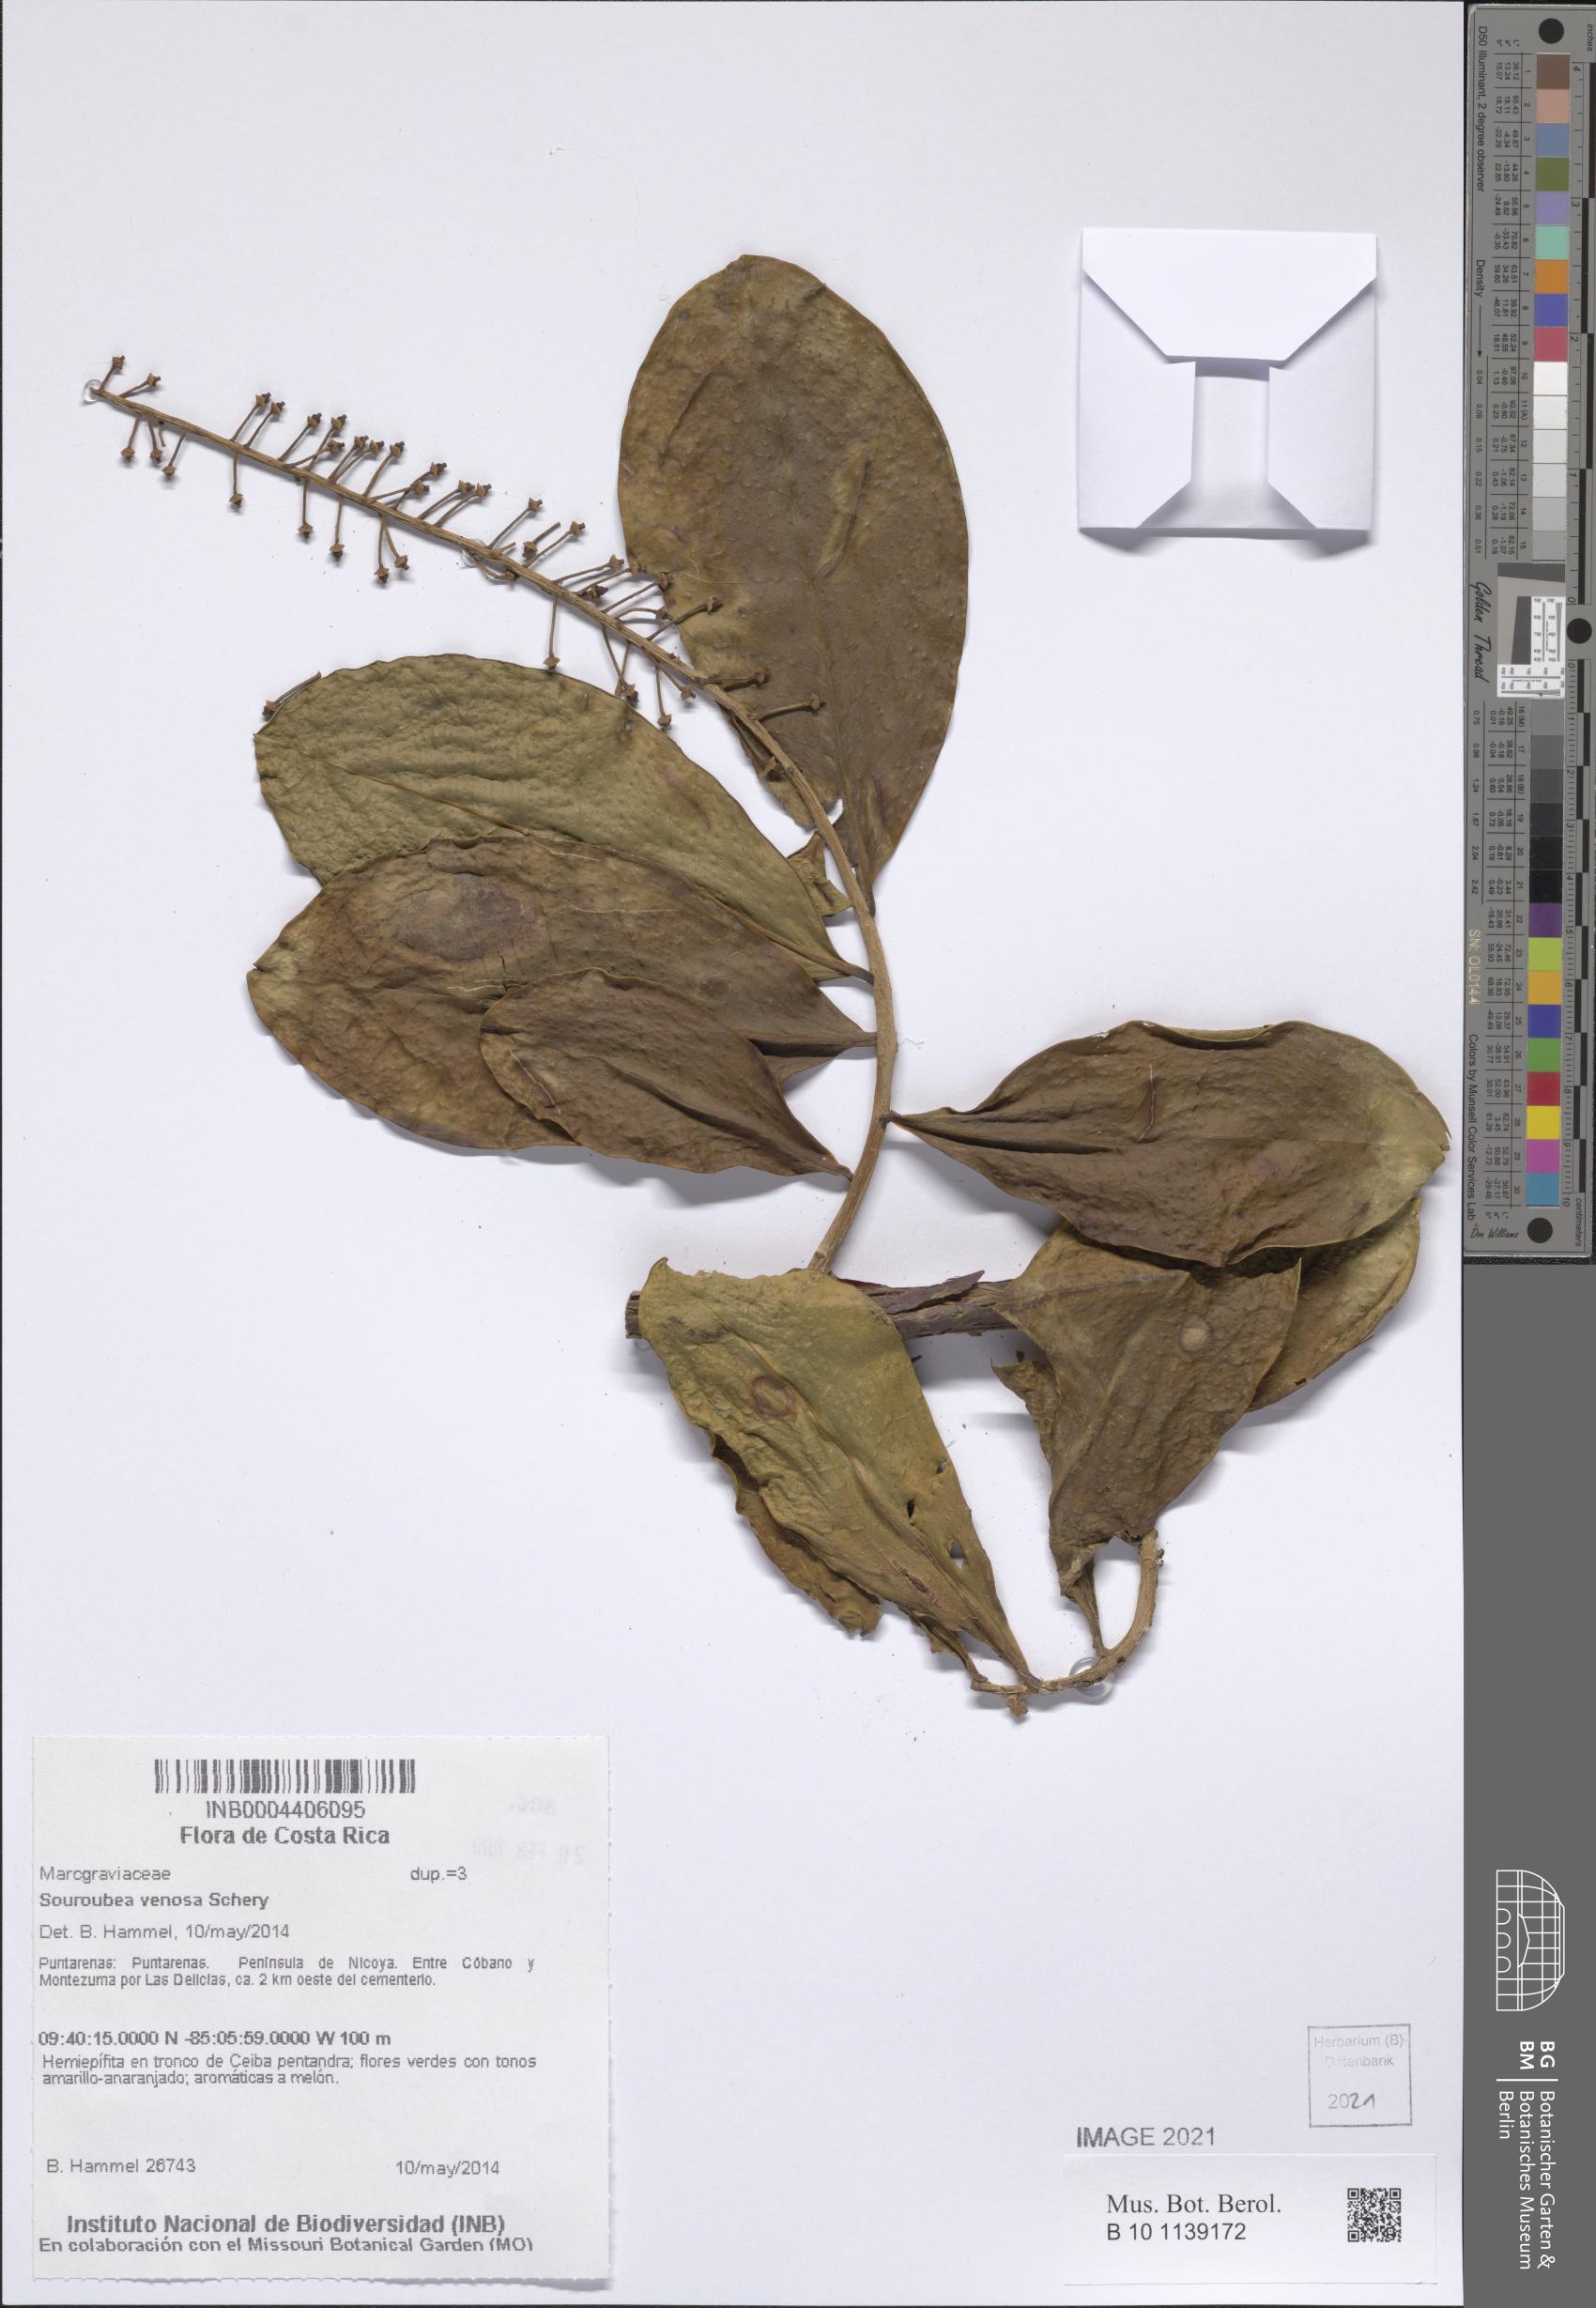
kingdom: Plantae
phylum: Tracheophyta
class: Magnoliopsida
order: Ericales
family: Marcgraviaceae
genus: Souroubea
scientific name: Souroubea venosa
